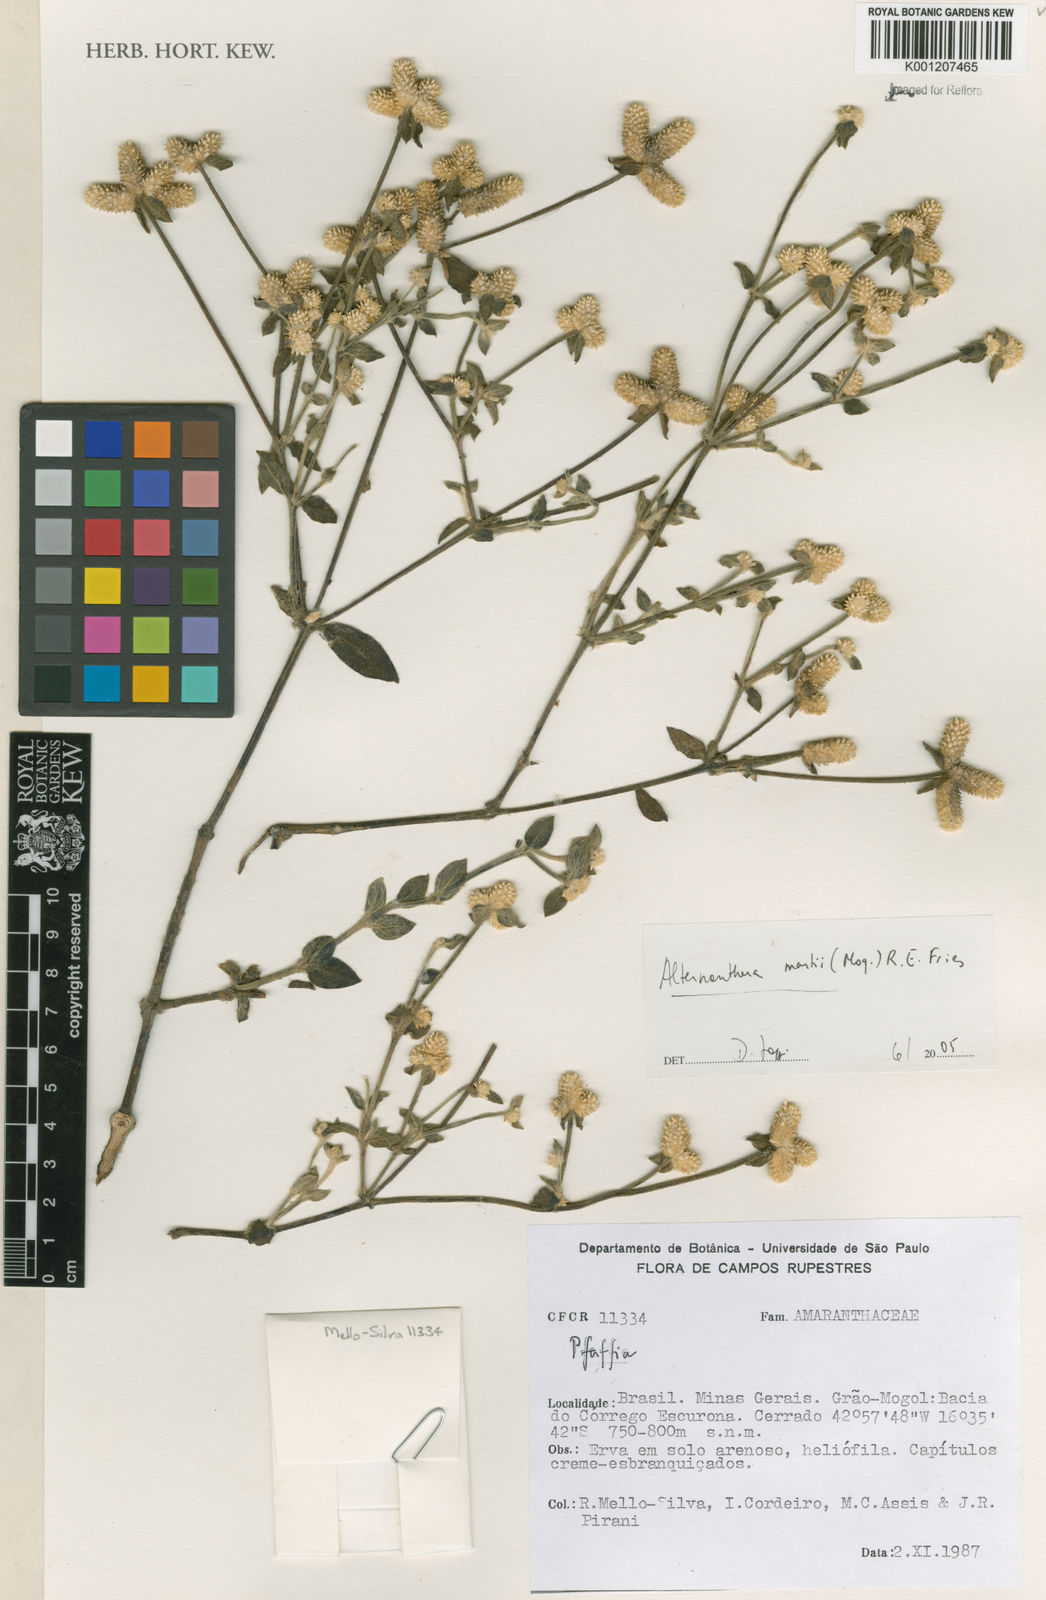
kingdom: Plantae
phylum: Tracheophyta
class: Magnoliopsida
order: Caryophyllales
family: Amaranthaceae
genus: Alternanthera
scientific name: Alternanthera martii
